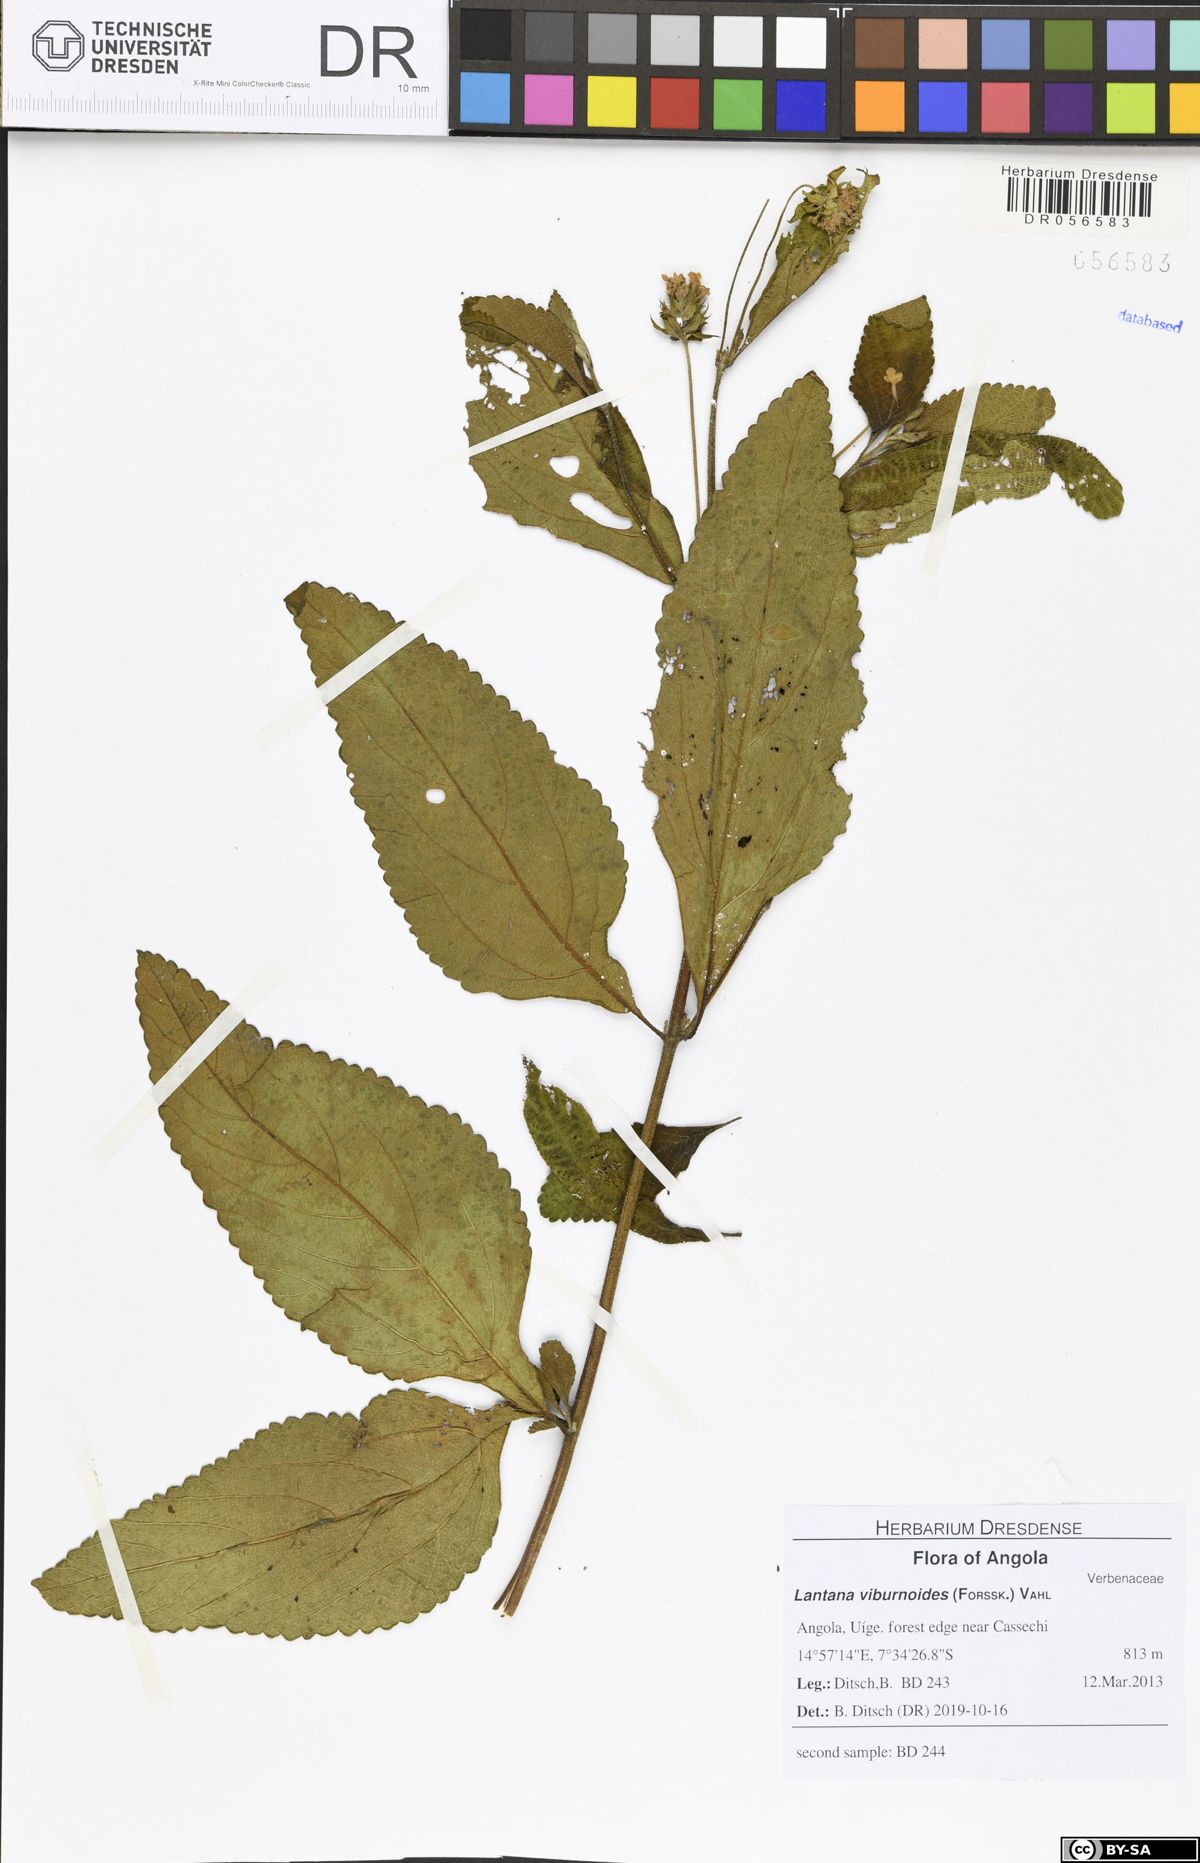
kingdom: Plantae
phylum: Tracheophyta
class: Magnoliopsida
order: Lamiales
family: Verbenaceae
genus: Lantana
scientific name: Lantana viburnoides
